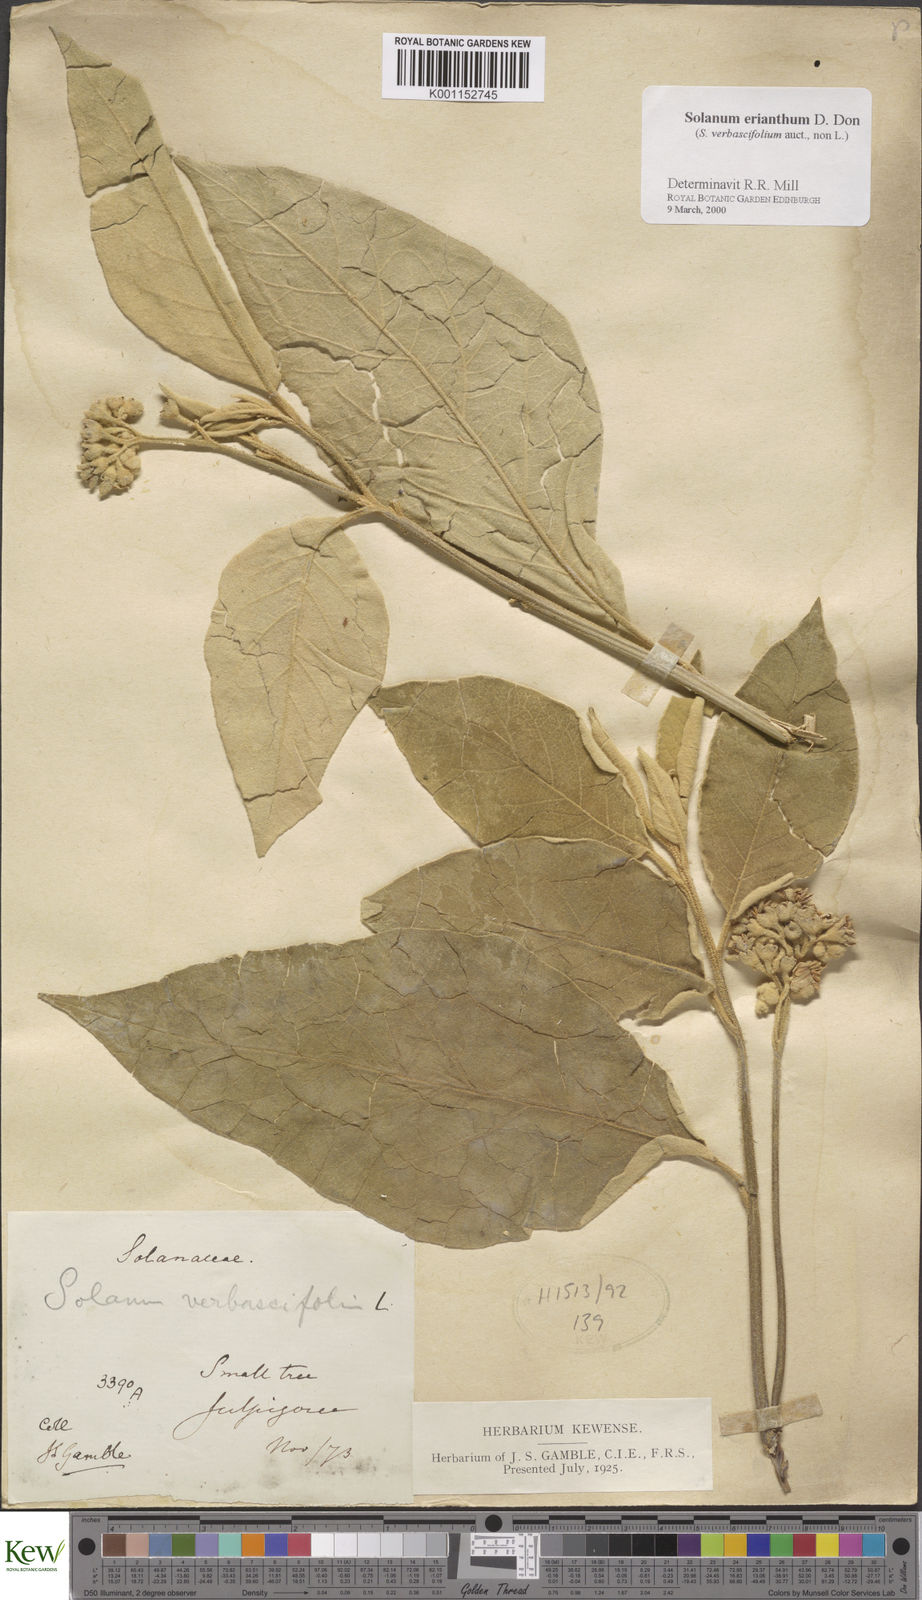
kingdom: Plantae
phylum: Tracheophyta
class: Magnoliopsida
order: Solanales
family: Solanaceae
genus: Solanum
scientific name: Solanum erianthum
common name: Tobacco-tree
